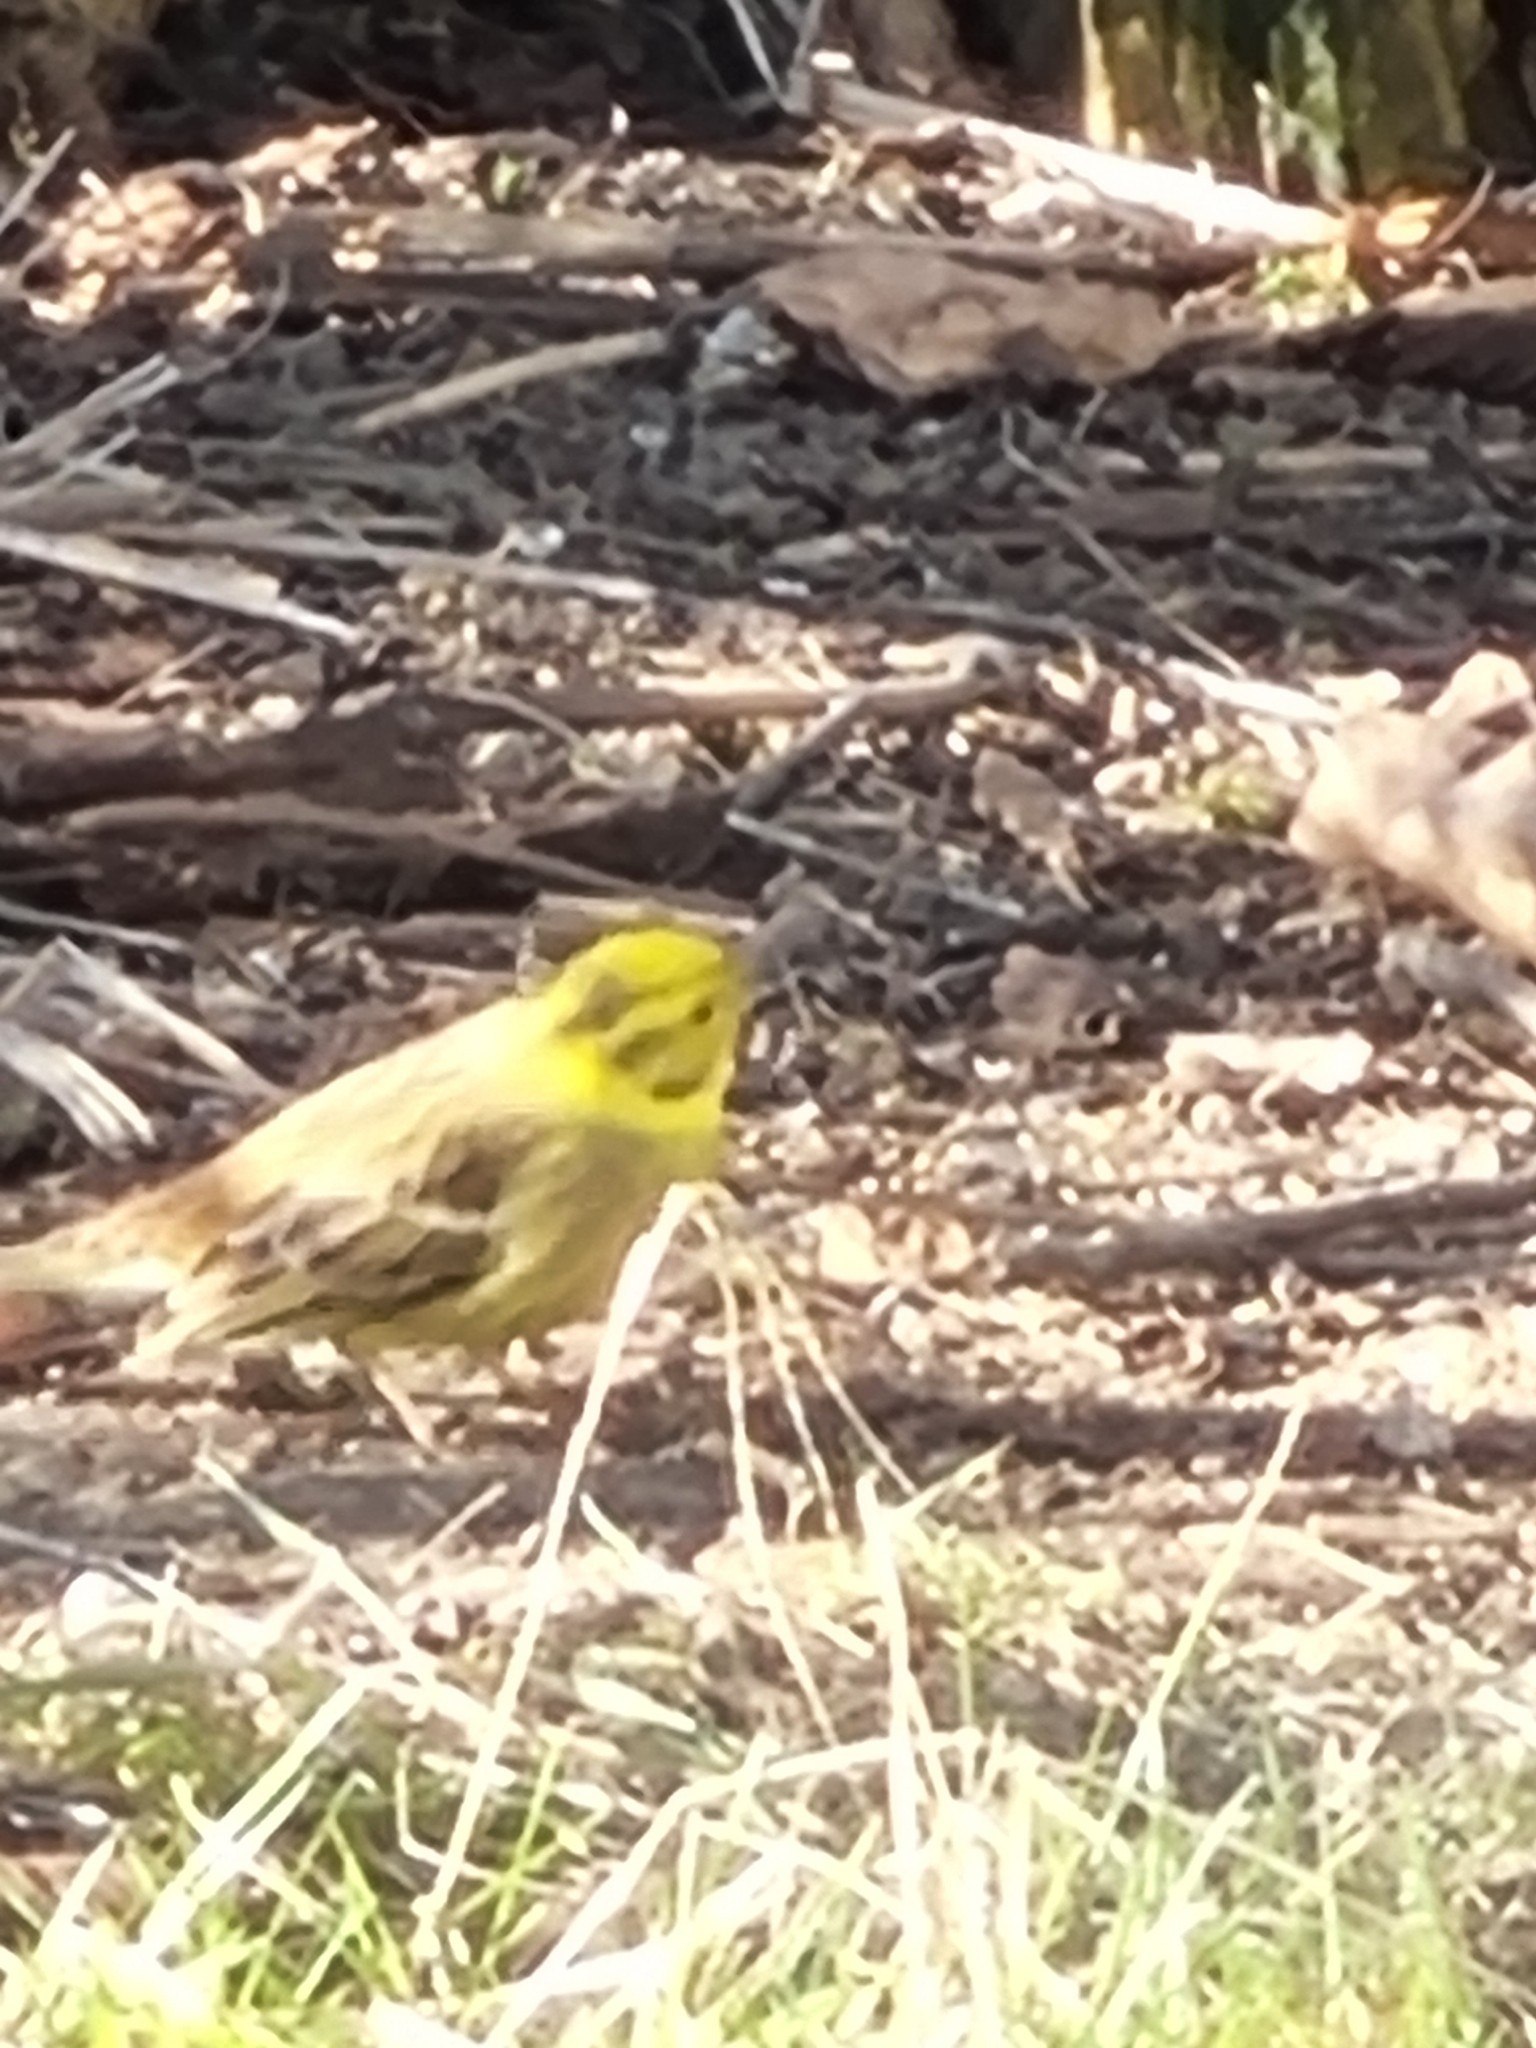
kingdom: Animalia
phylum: Chordata
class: Aves
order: Passeriformes
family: Emberizidae
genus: Emberiza
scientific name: Emberiza citrinella
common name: Gulspurv
